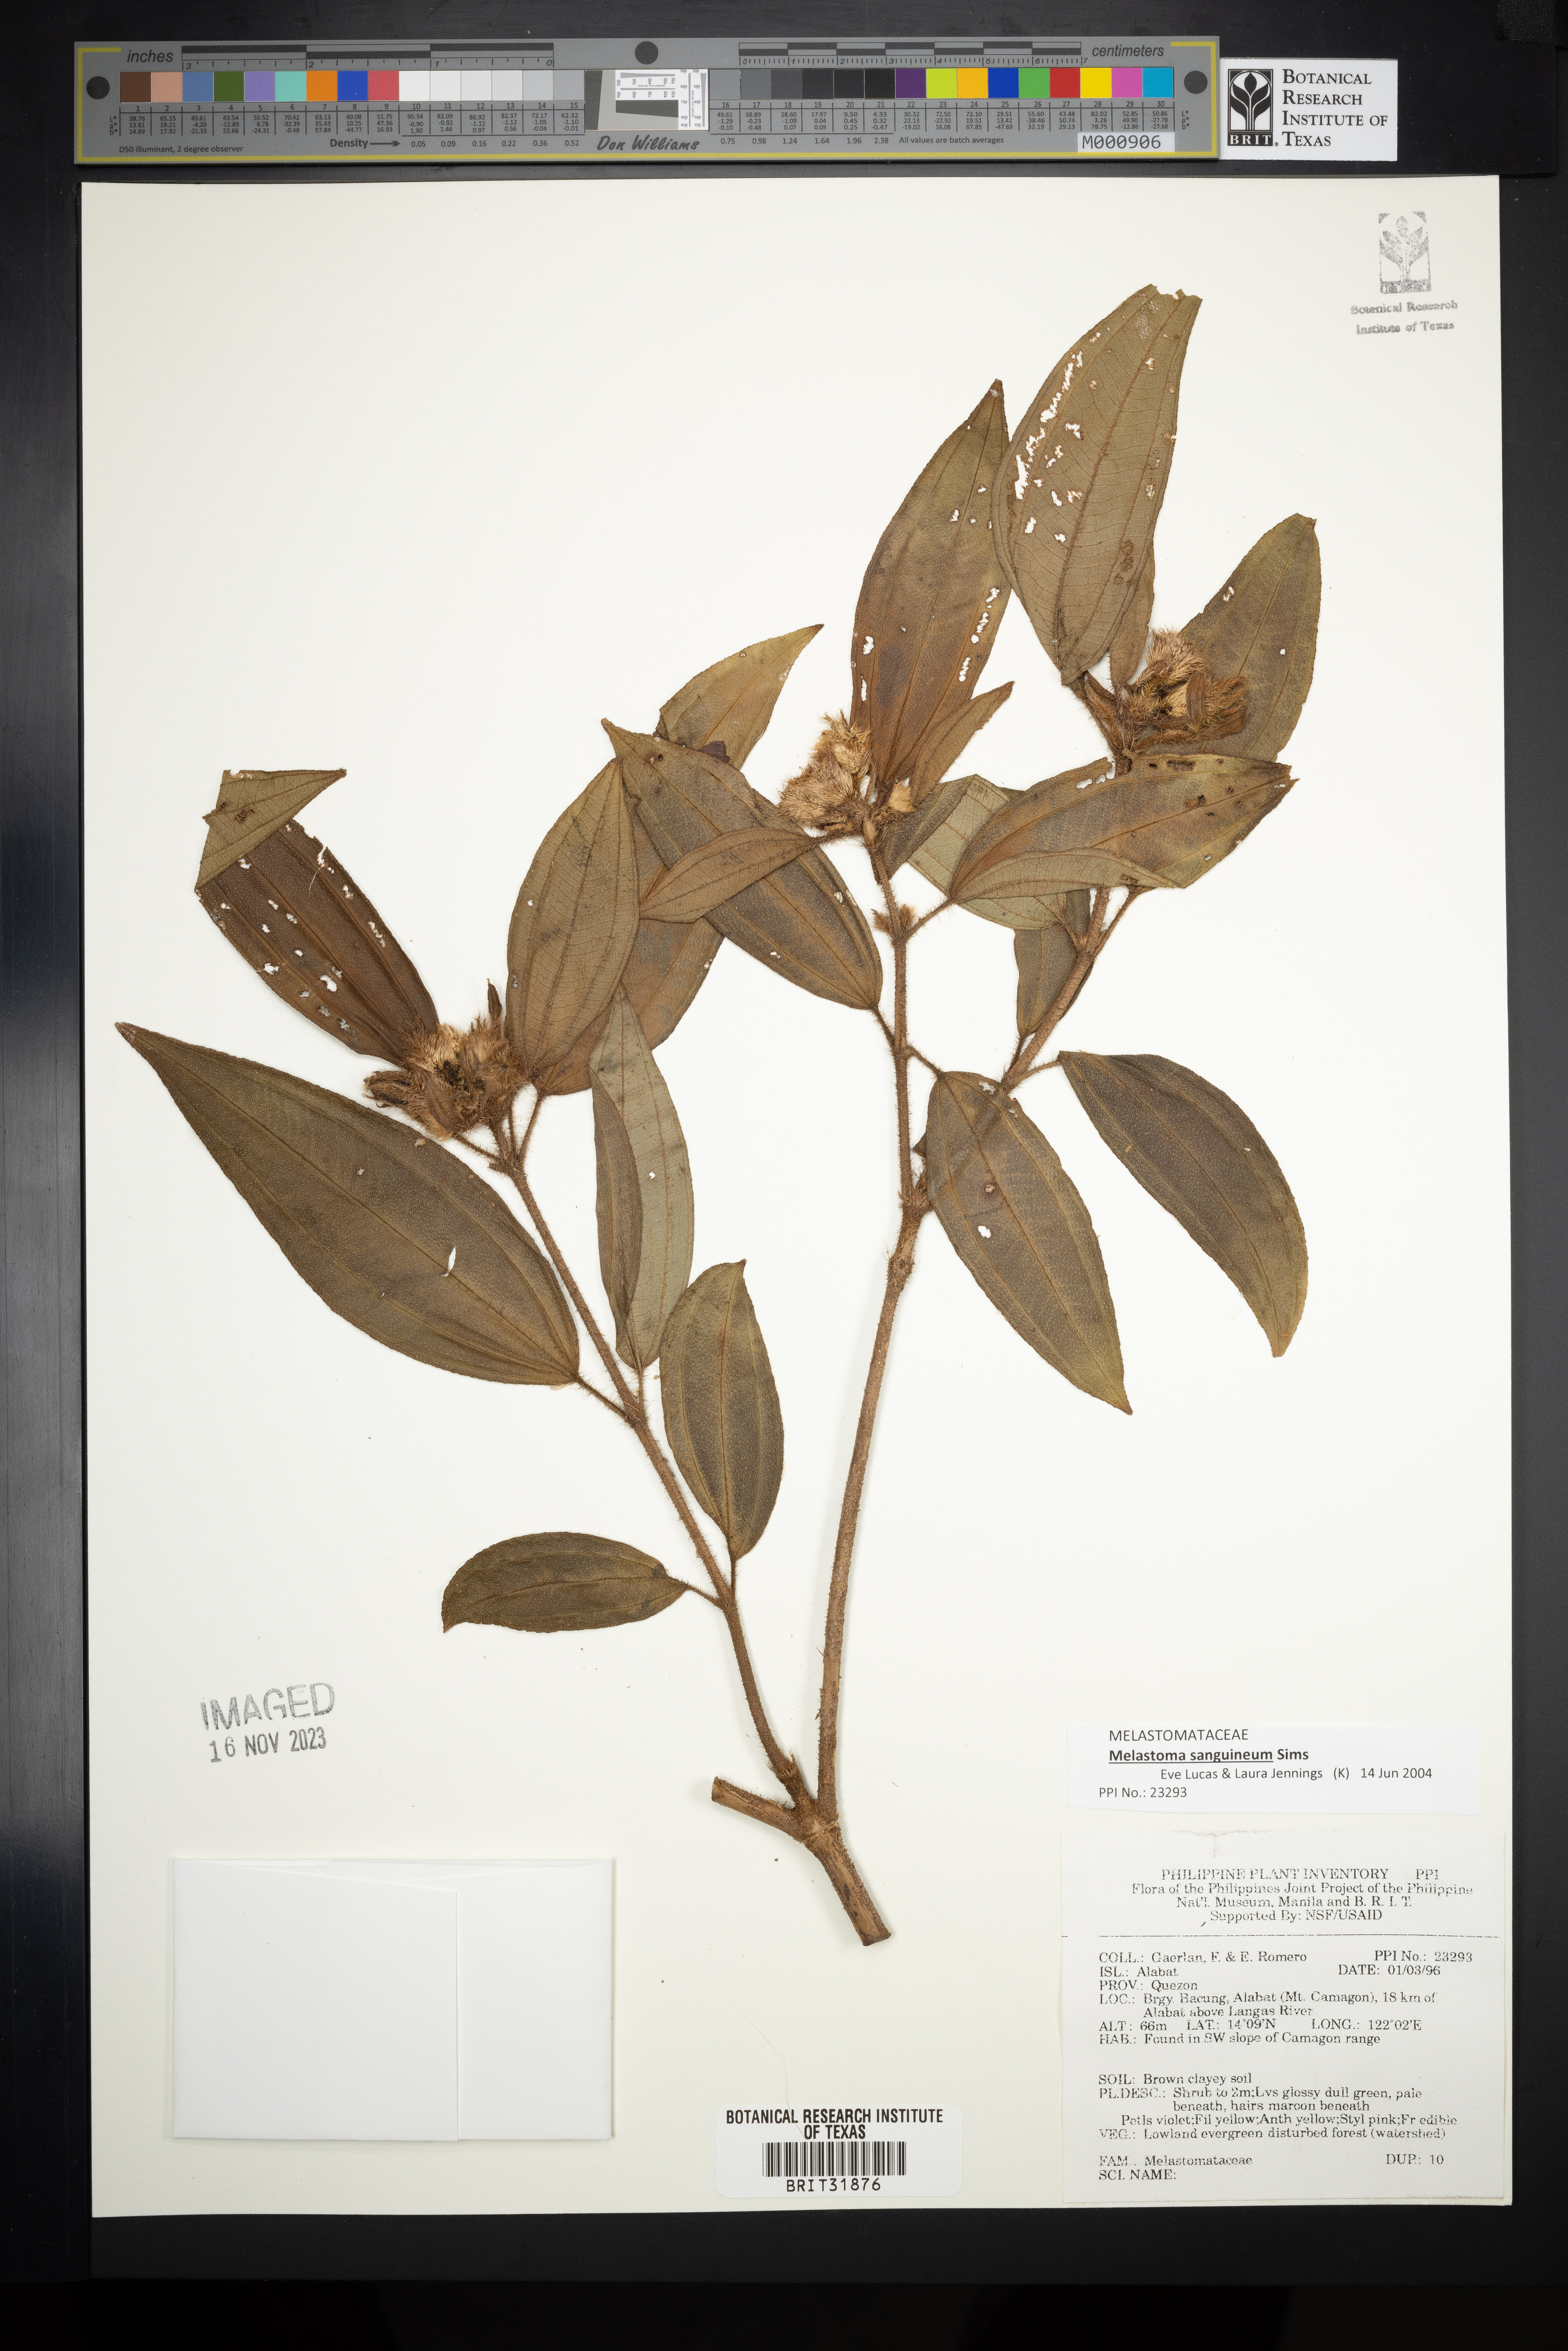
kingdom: Plantae
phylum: Tracheophyta
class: Magnoliopsida
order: Myrtales
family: Melastomataceae
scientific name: Melastomataceae
